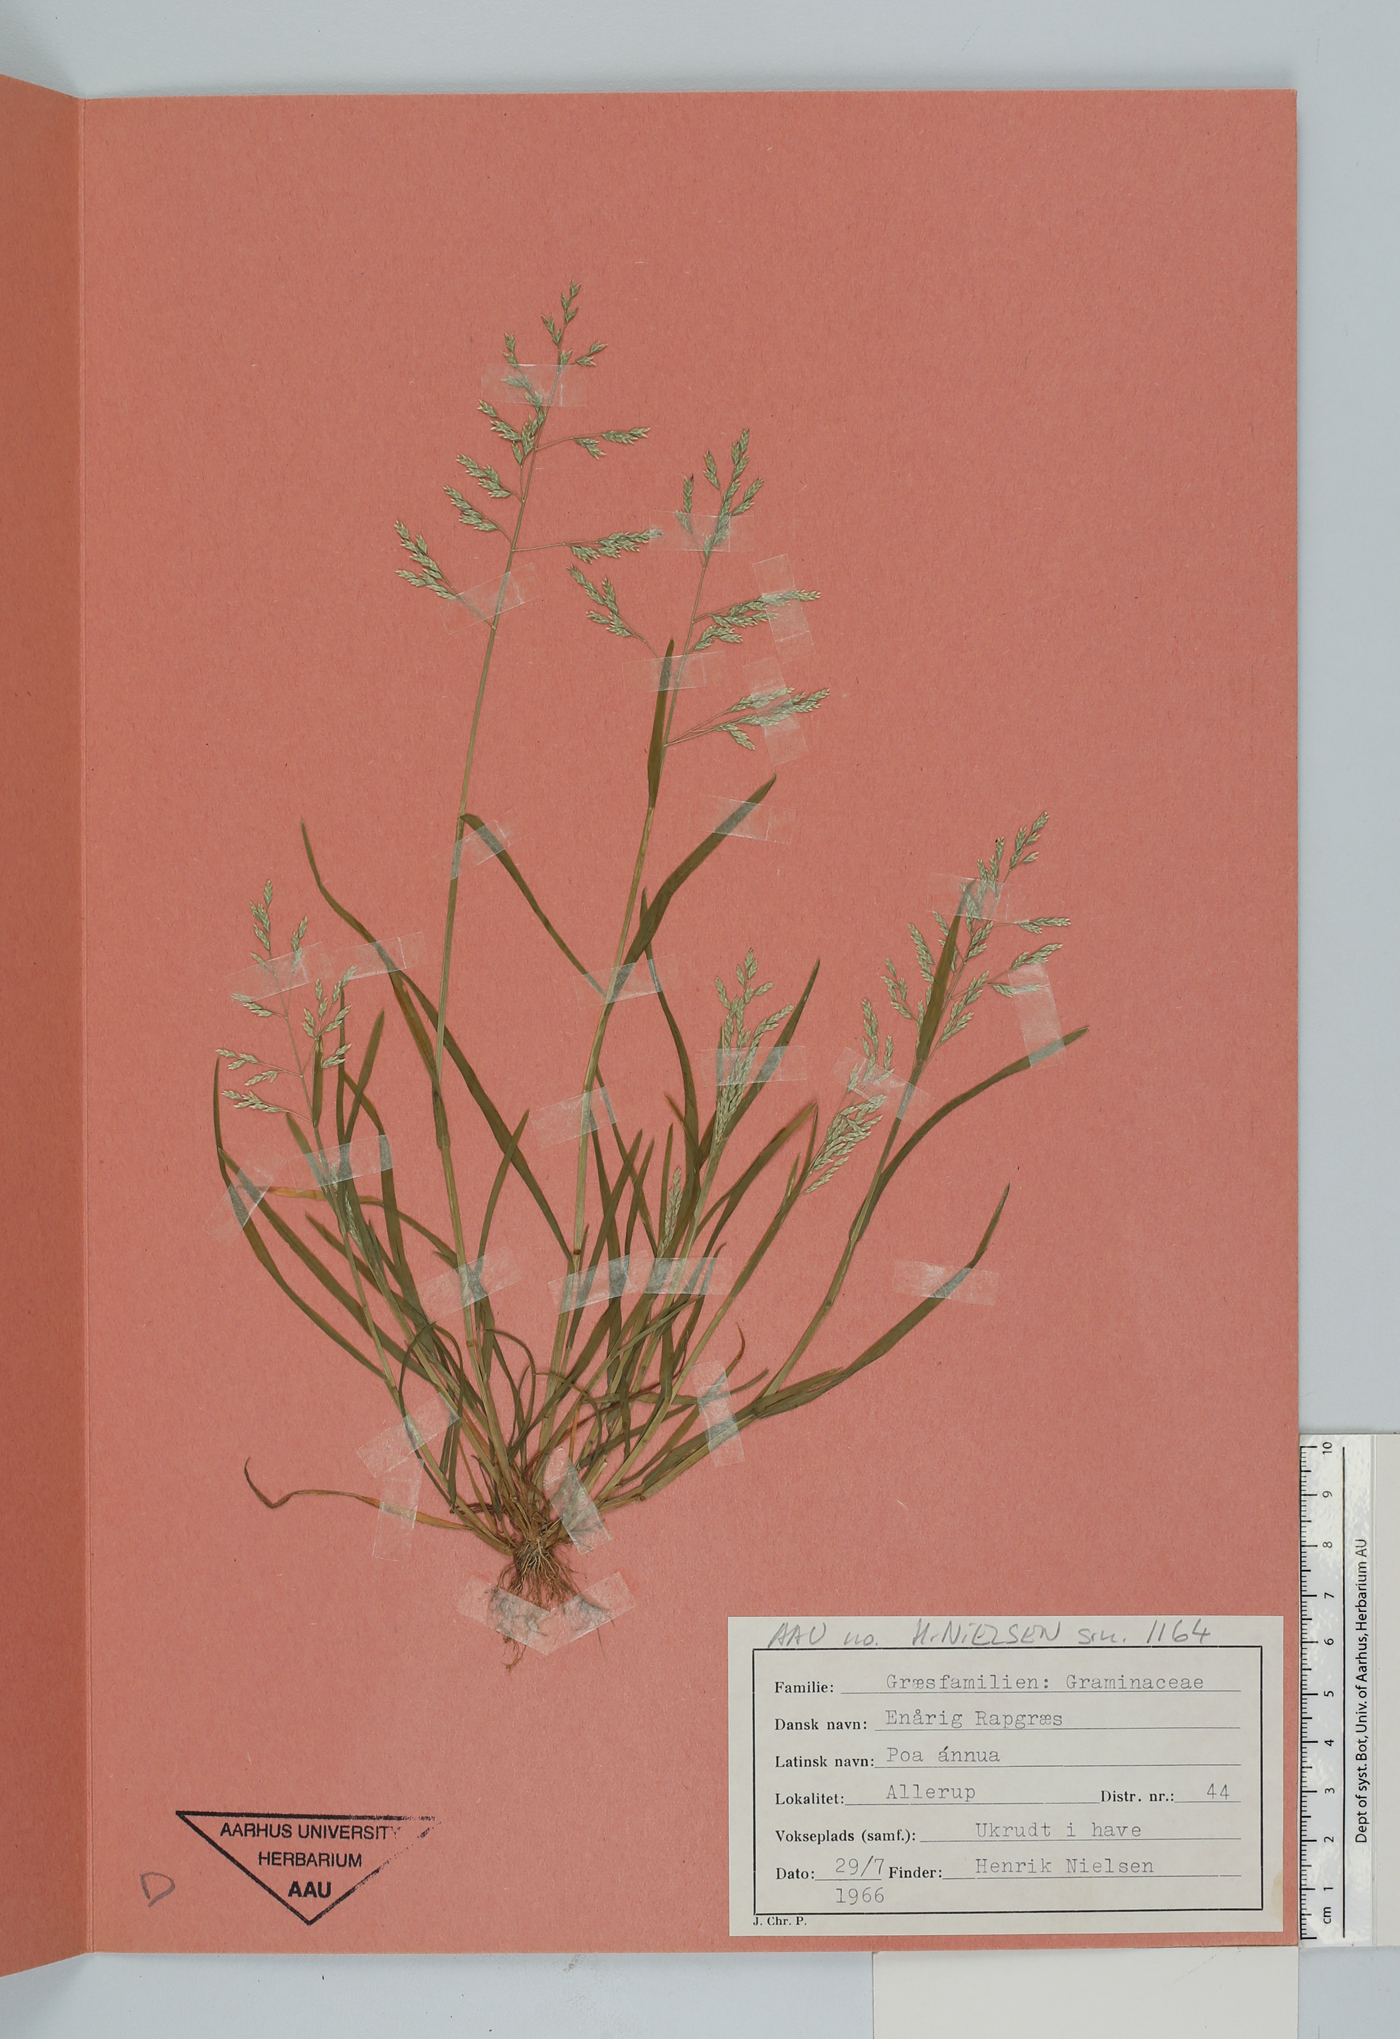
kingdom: Plantae
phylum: Tracheophyta
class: Liliopsida
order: Poales
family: Poaceae
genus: Poa
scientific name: Poa annua
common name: Annual bluegrass
